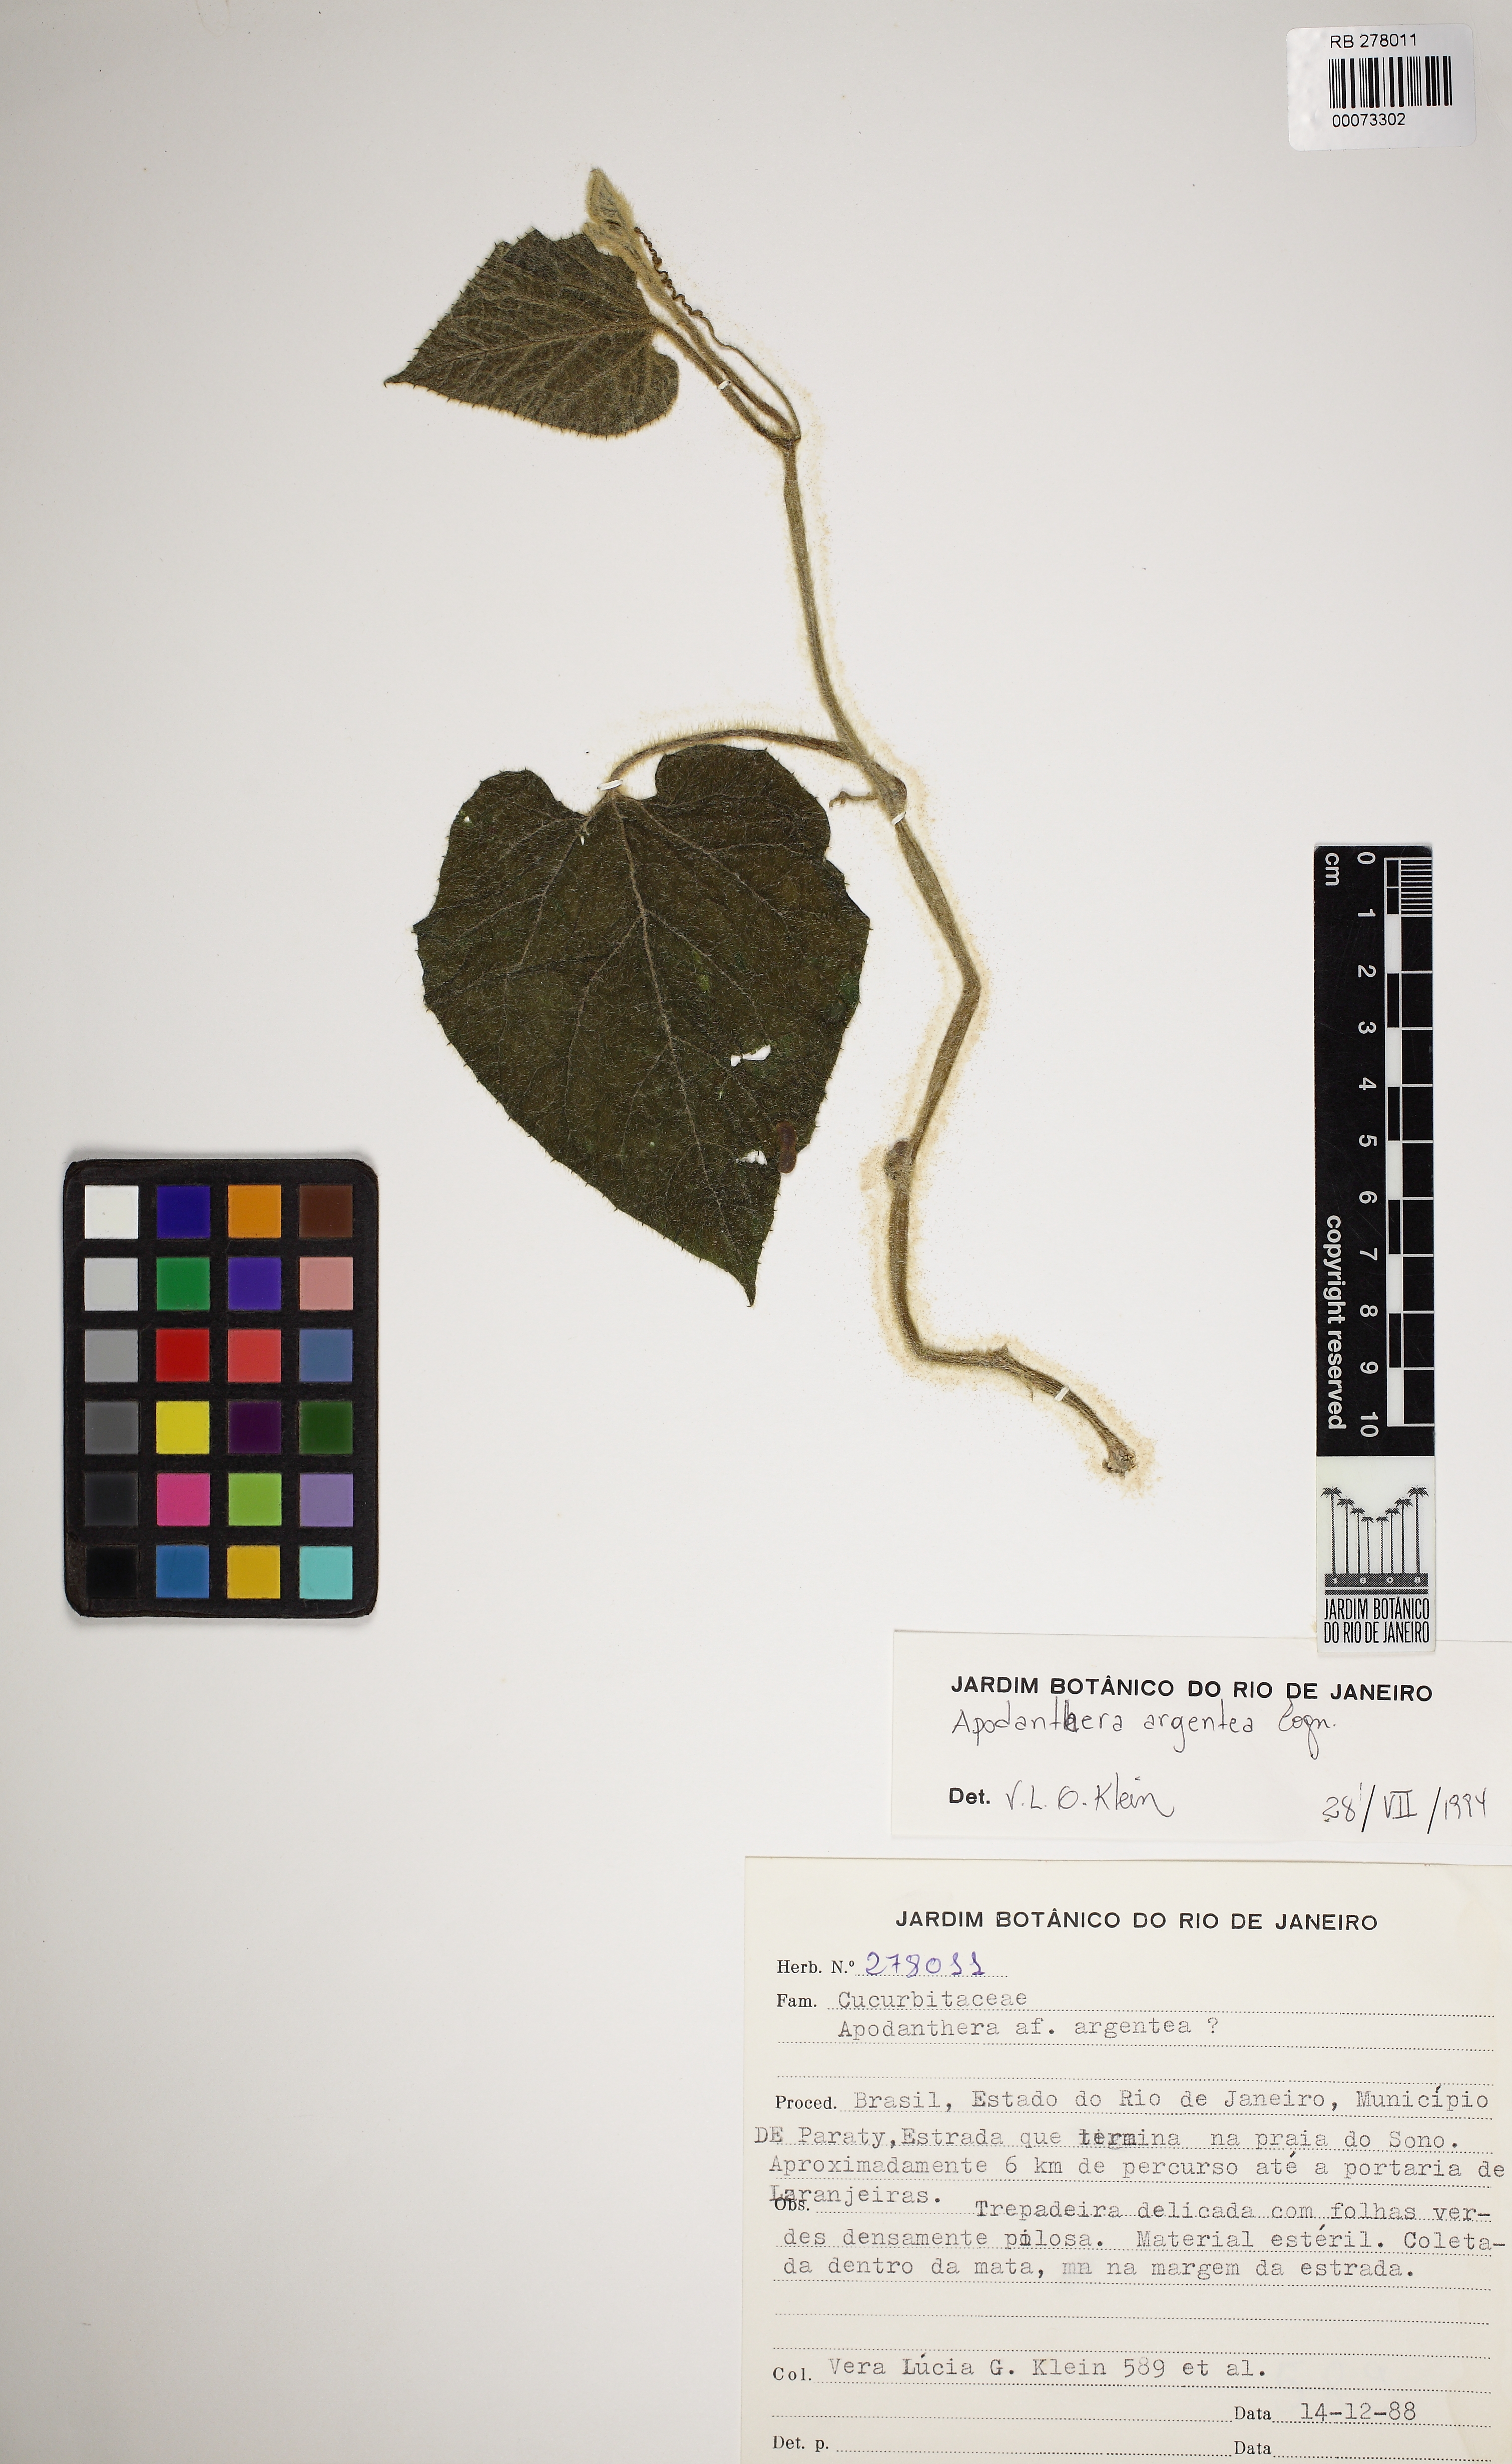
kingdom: Plantae
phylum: Tracheophyta
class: Magnoliopsida
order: Cucurbitales
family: Cucurbitaceae
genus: Apodanthera
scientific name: Apodanthera argentea
